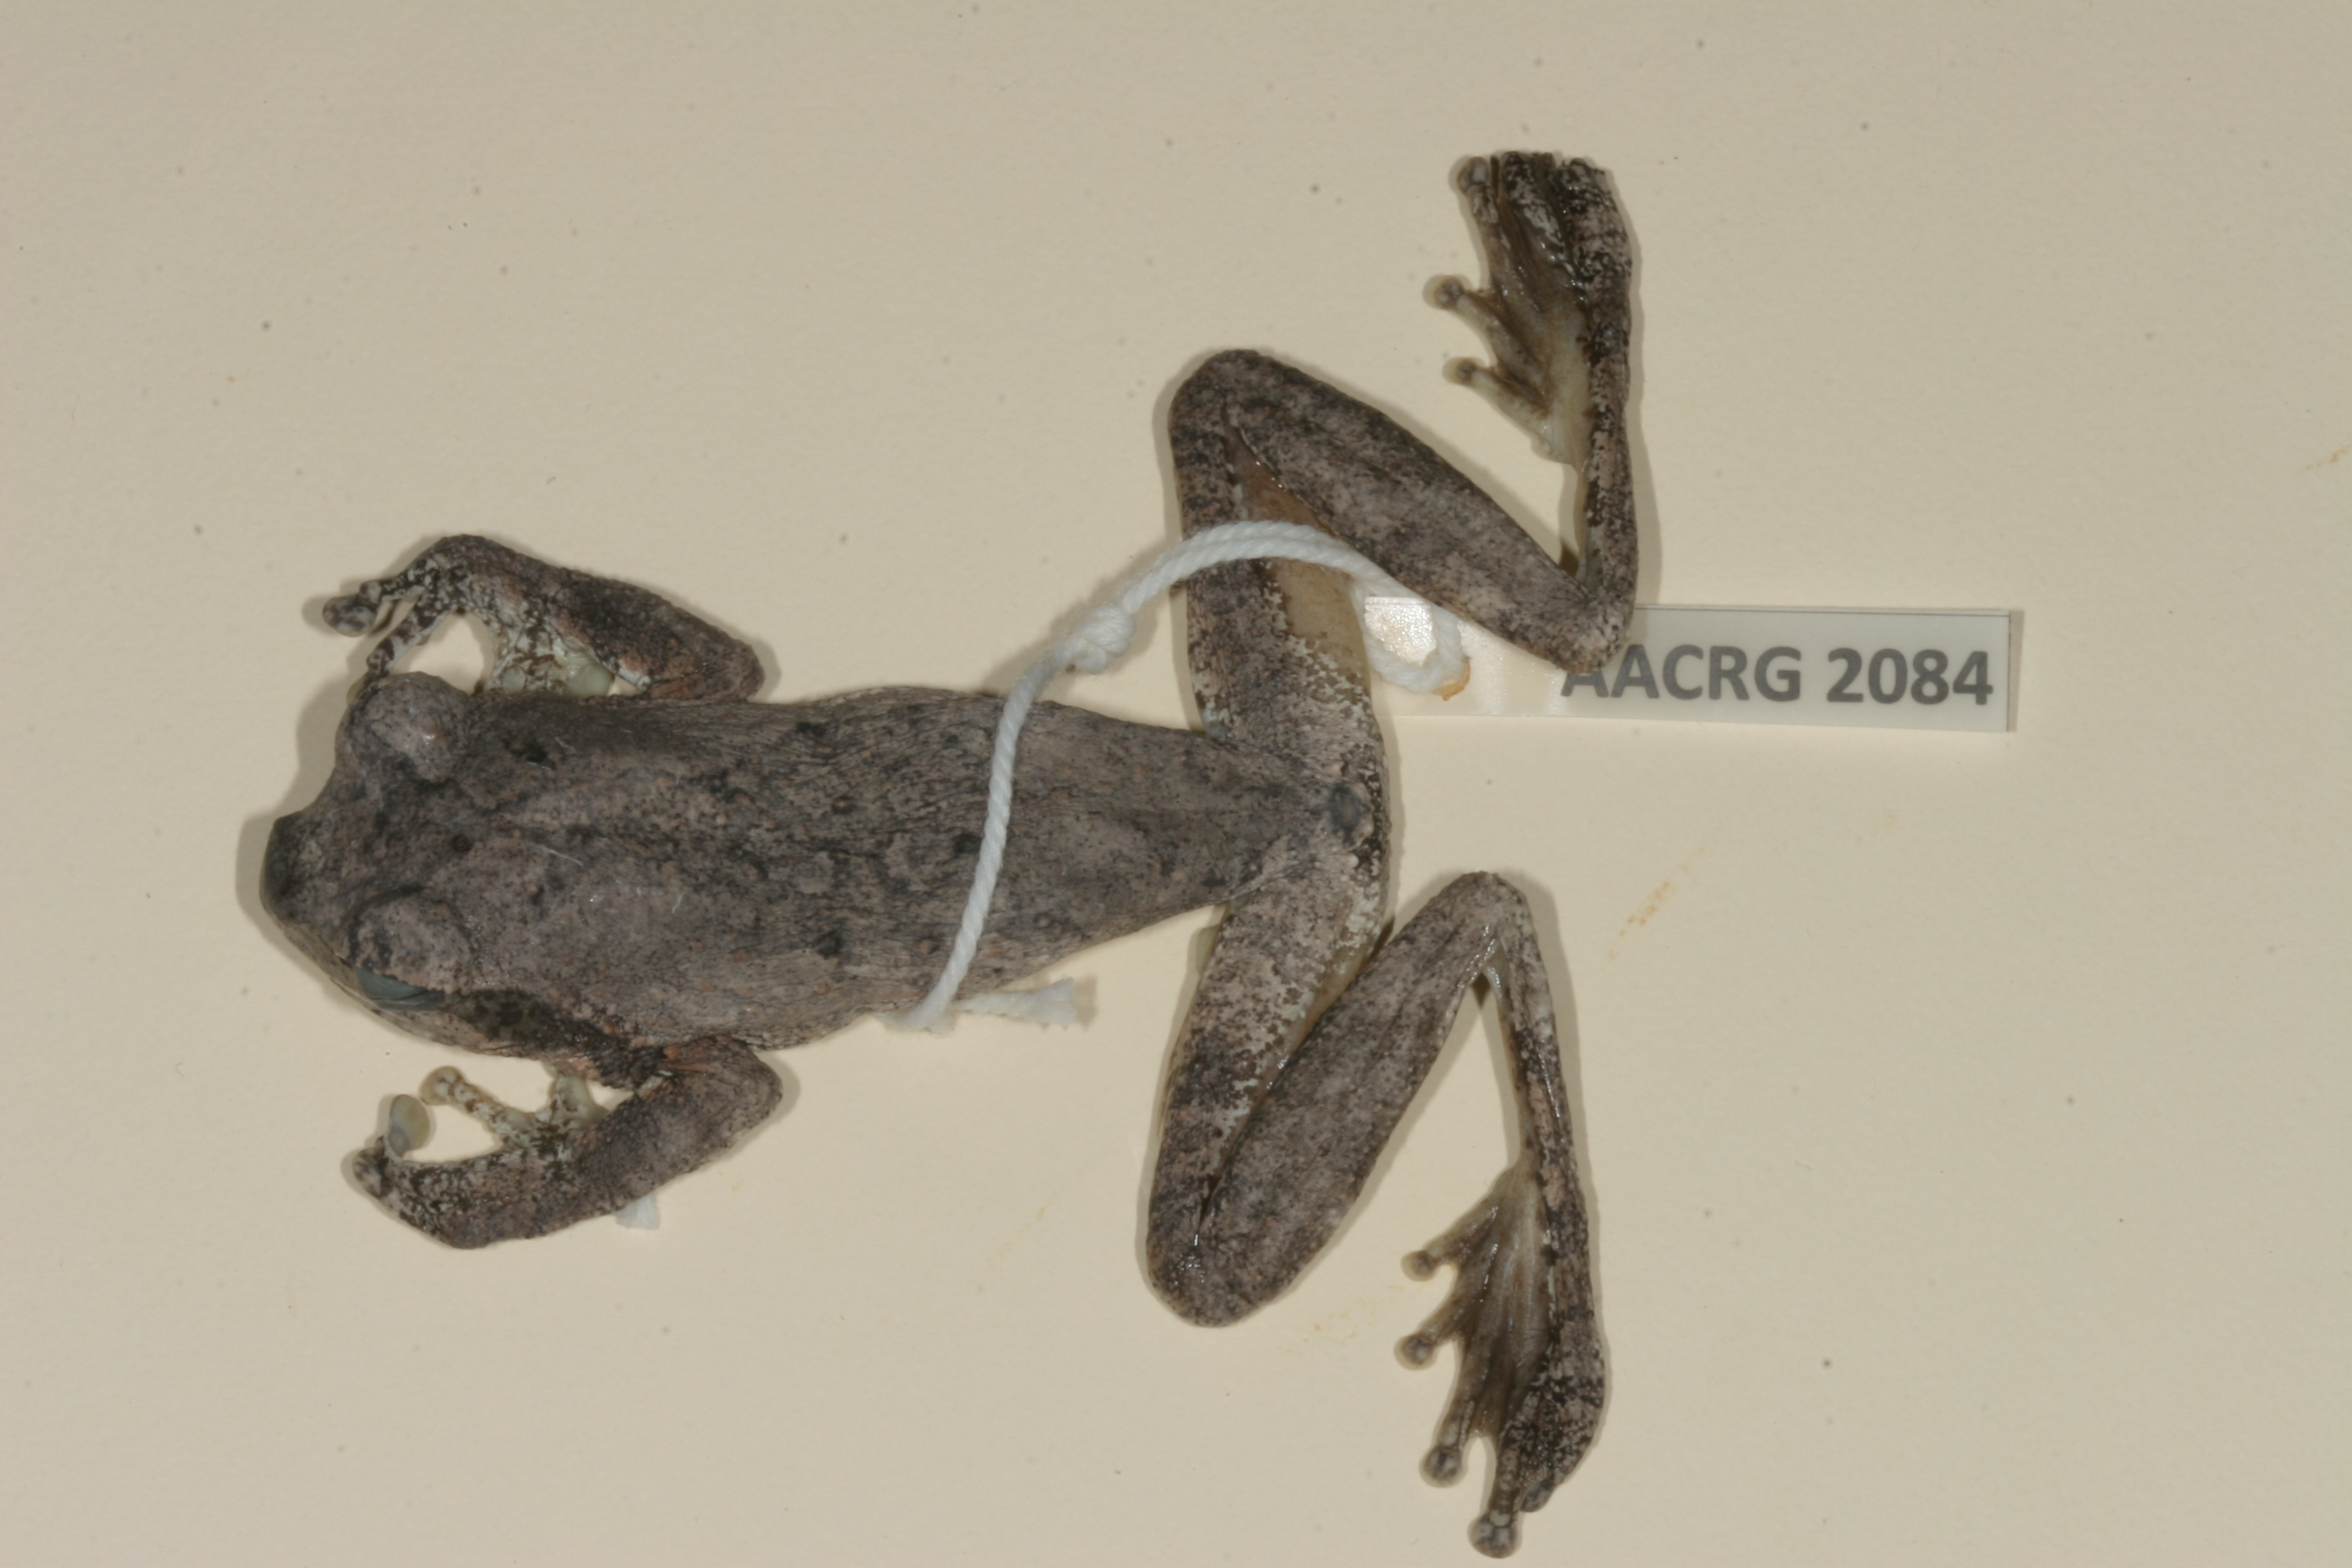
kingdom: Animalia
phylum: Chordata
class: Amphibia
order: Anura
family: Rhacophoridae
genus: Chiromantis
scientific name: Chiromantis xerampelina
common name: African gray treefrog
